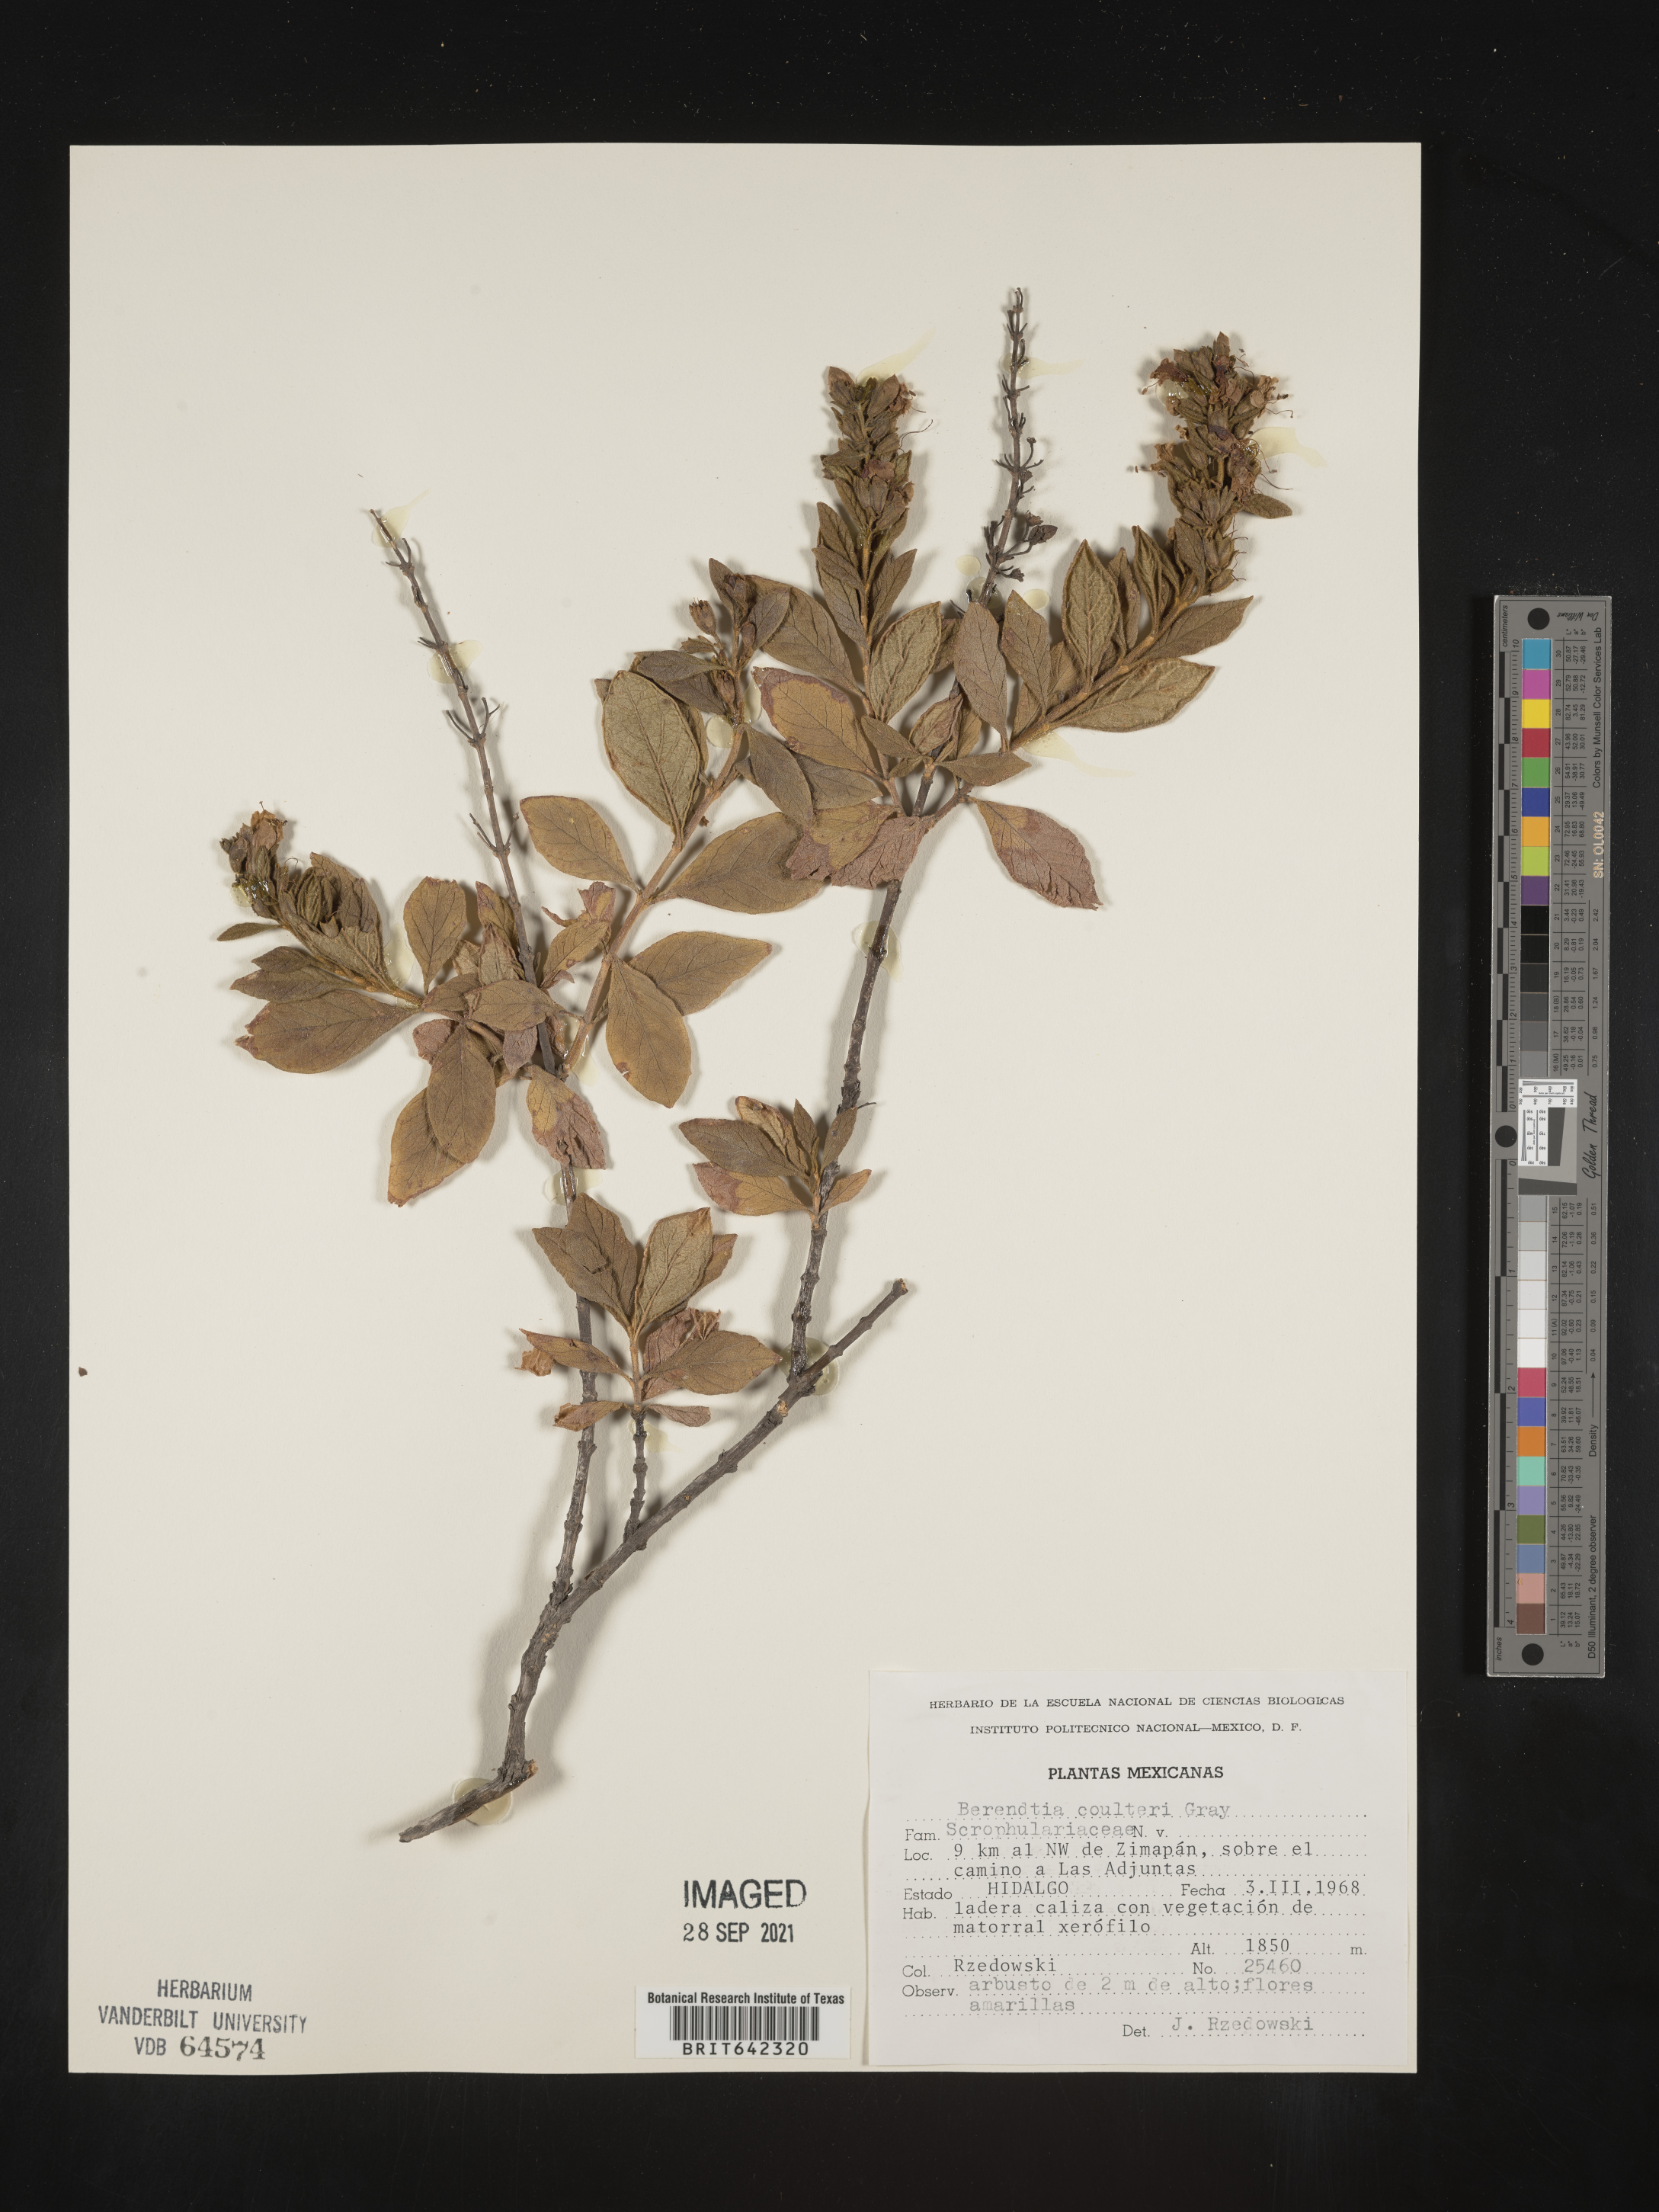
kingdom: Plantae
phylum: Tracheophyta
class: Magnoliopsida
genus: Berendtia
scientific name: Berendtia
